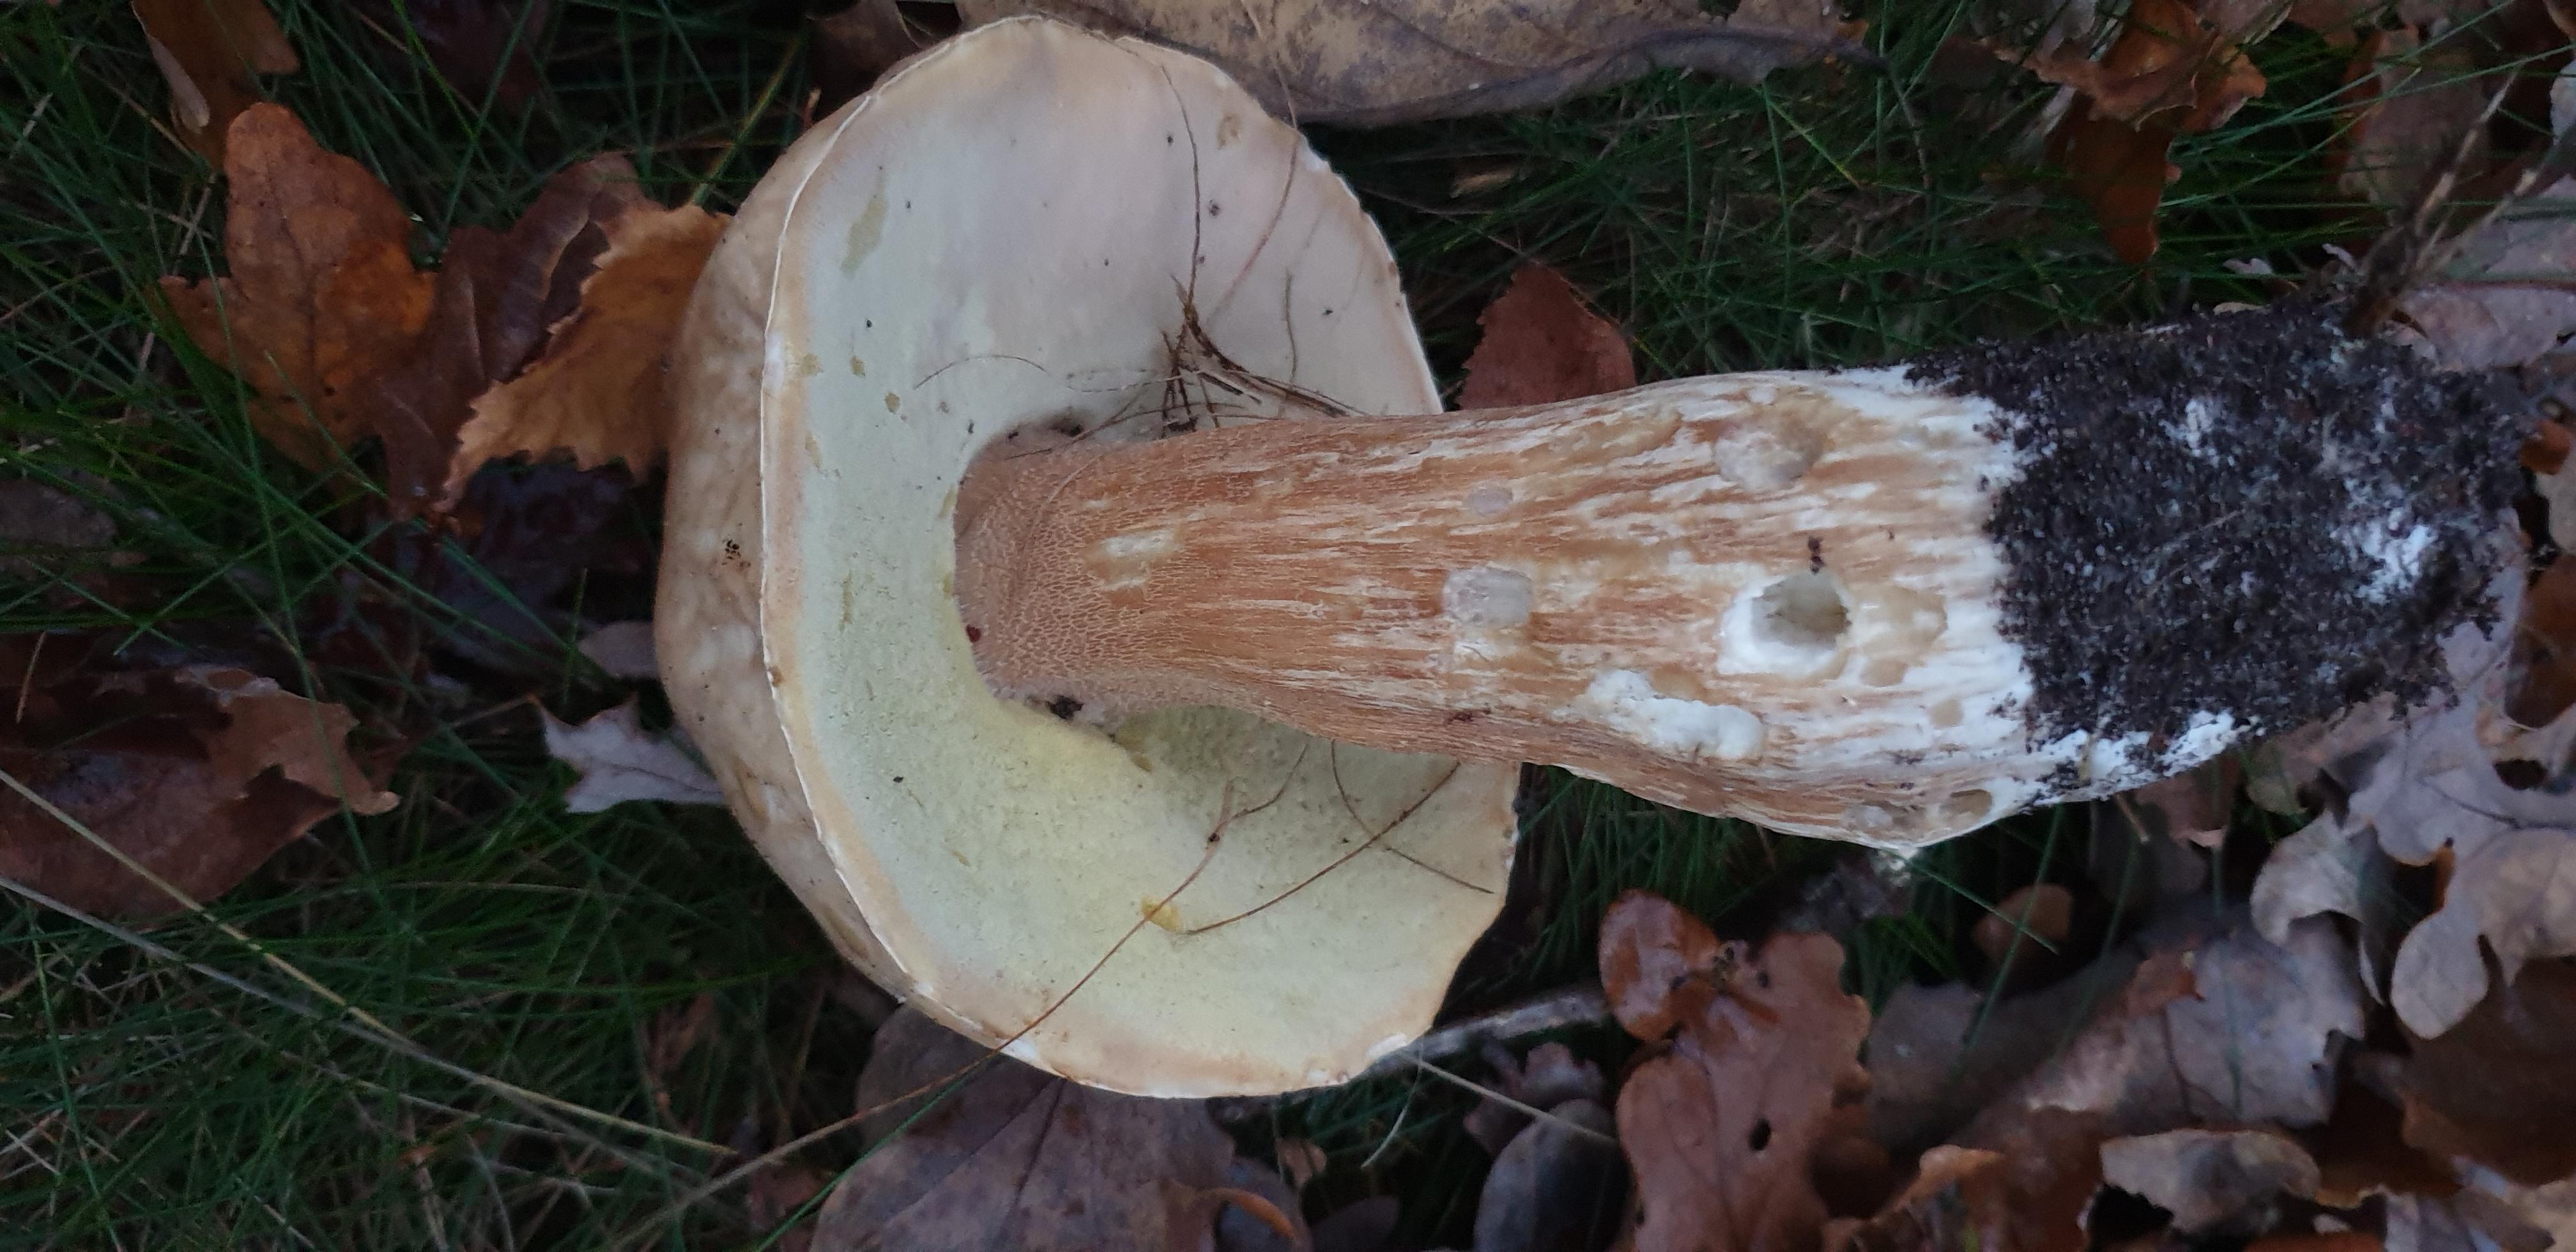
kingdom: Fungi
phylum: Basidiomycota
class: Agaricomycetes
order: Boletales
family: Boletaceae
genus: Boletus
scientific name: Boletus edulis
